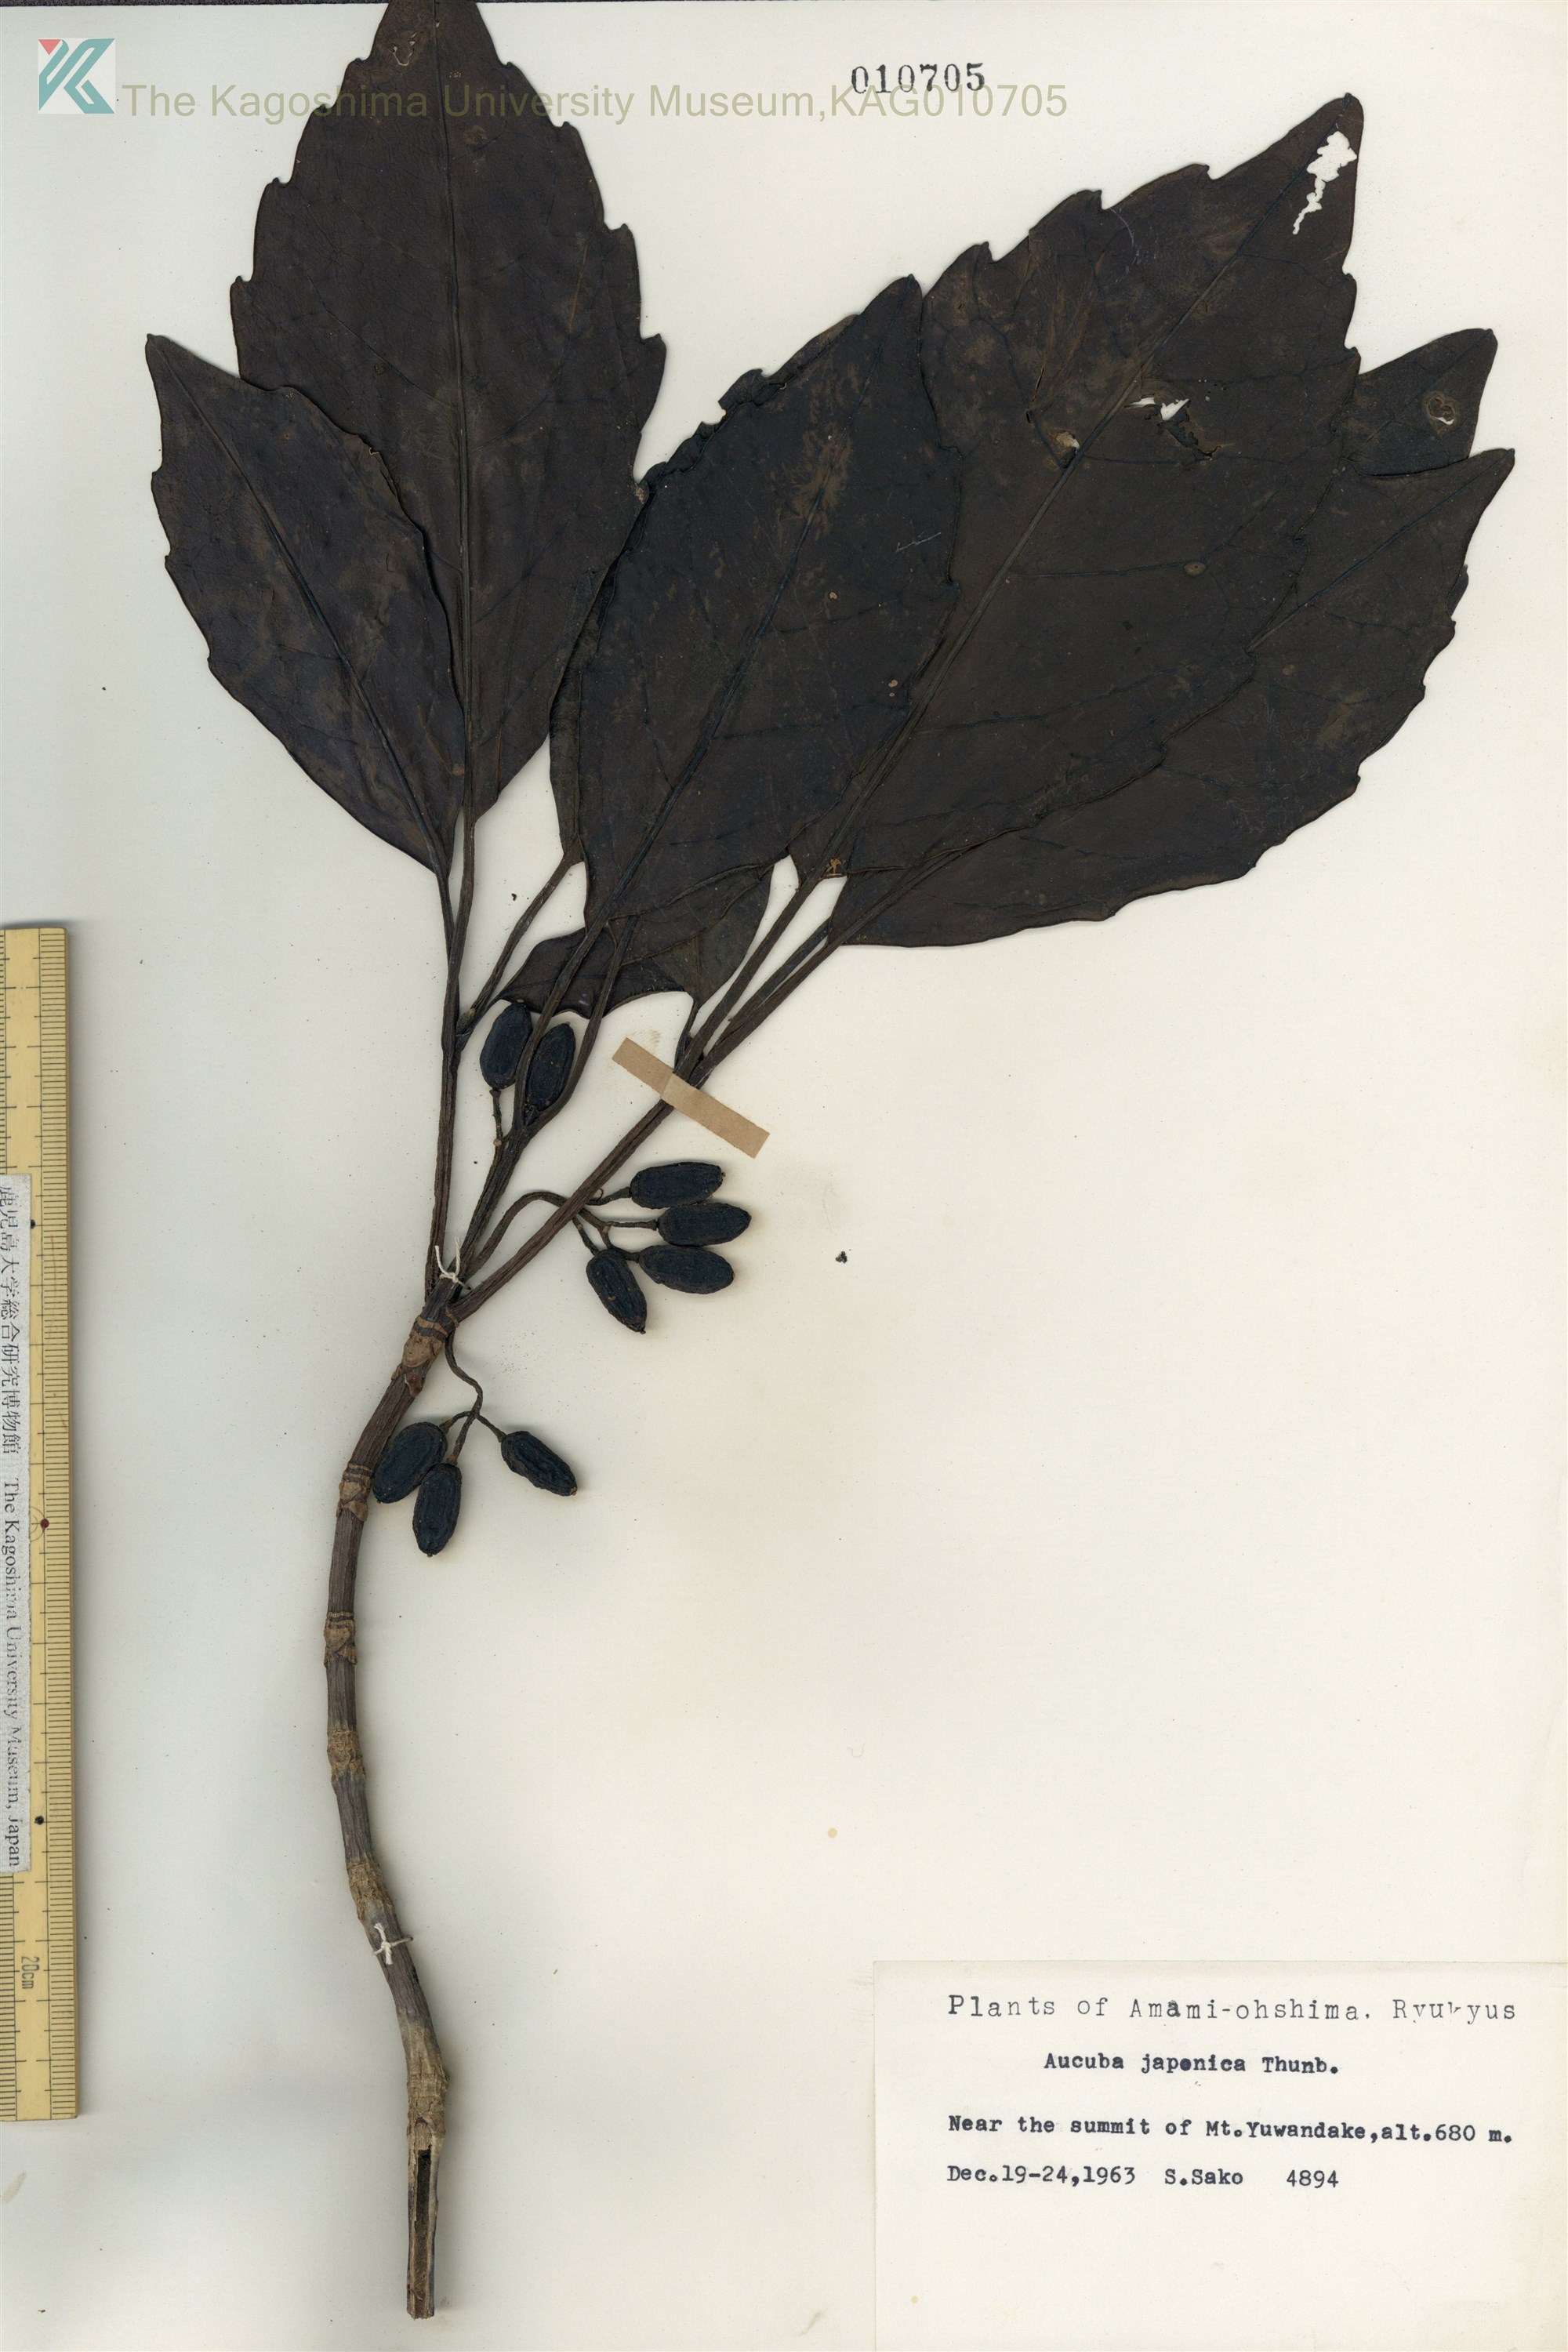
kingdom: Plantae
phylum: Tracheophyta
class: Magnoliopsida
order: Garryales
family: Garryaceae
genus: Aucuba
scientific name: Aucuba japonica
